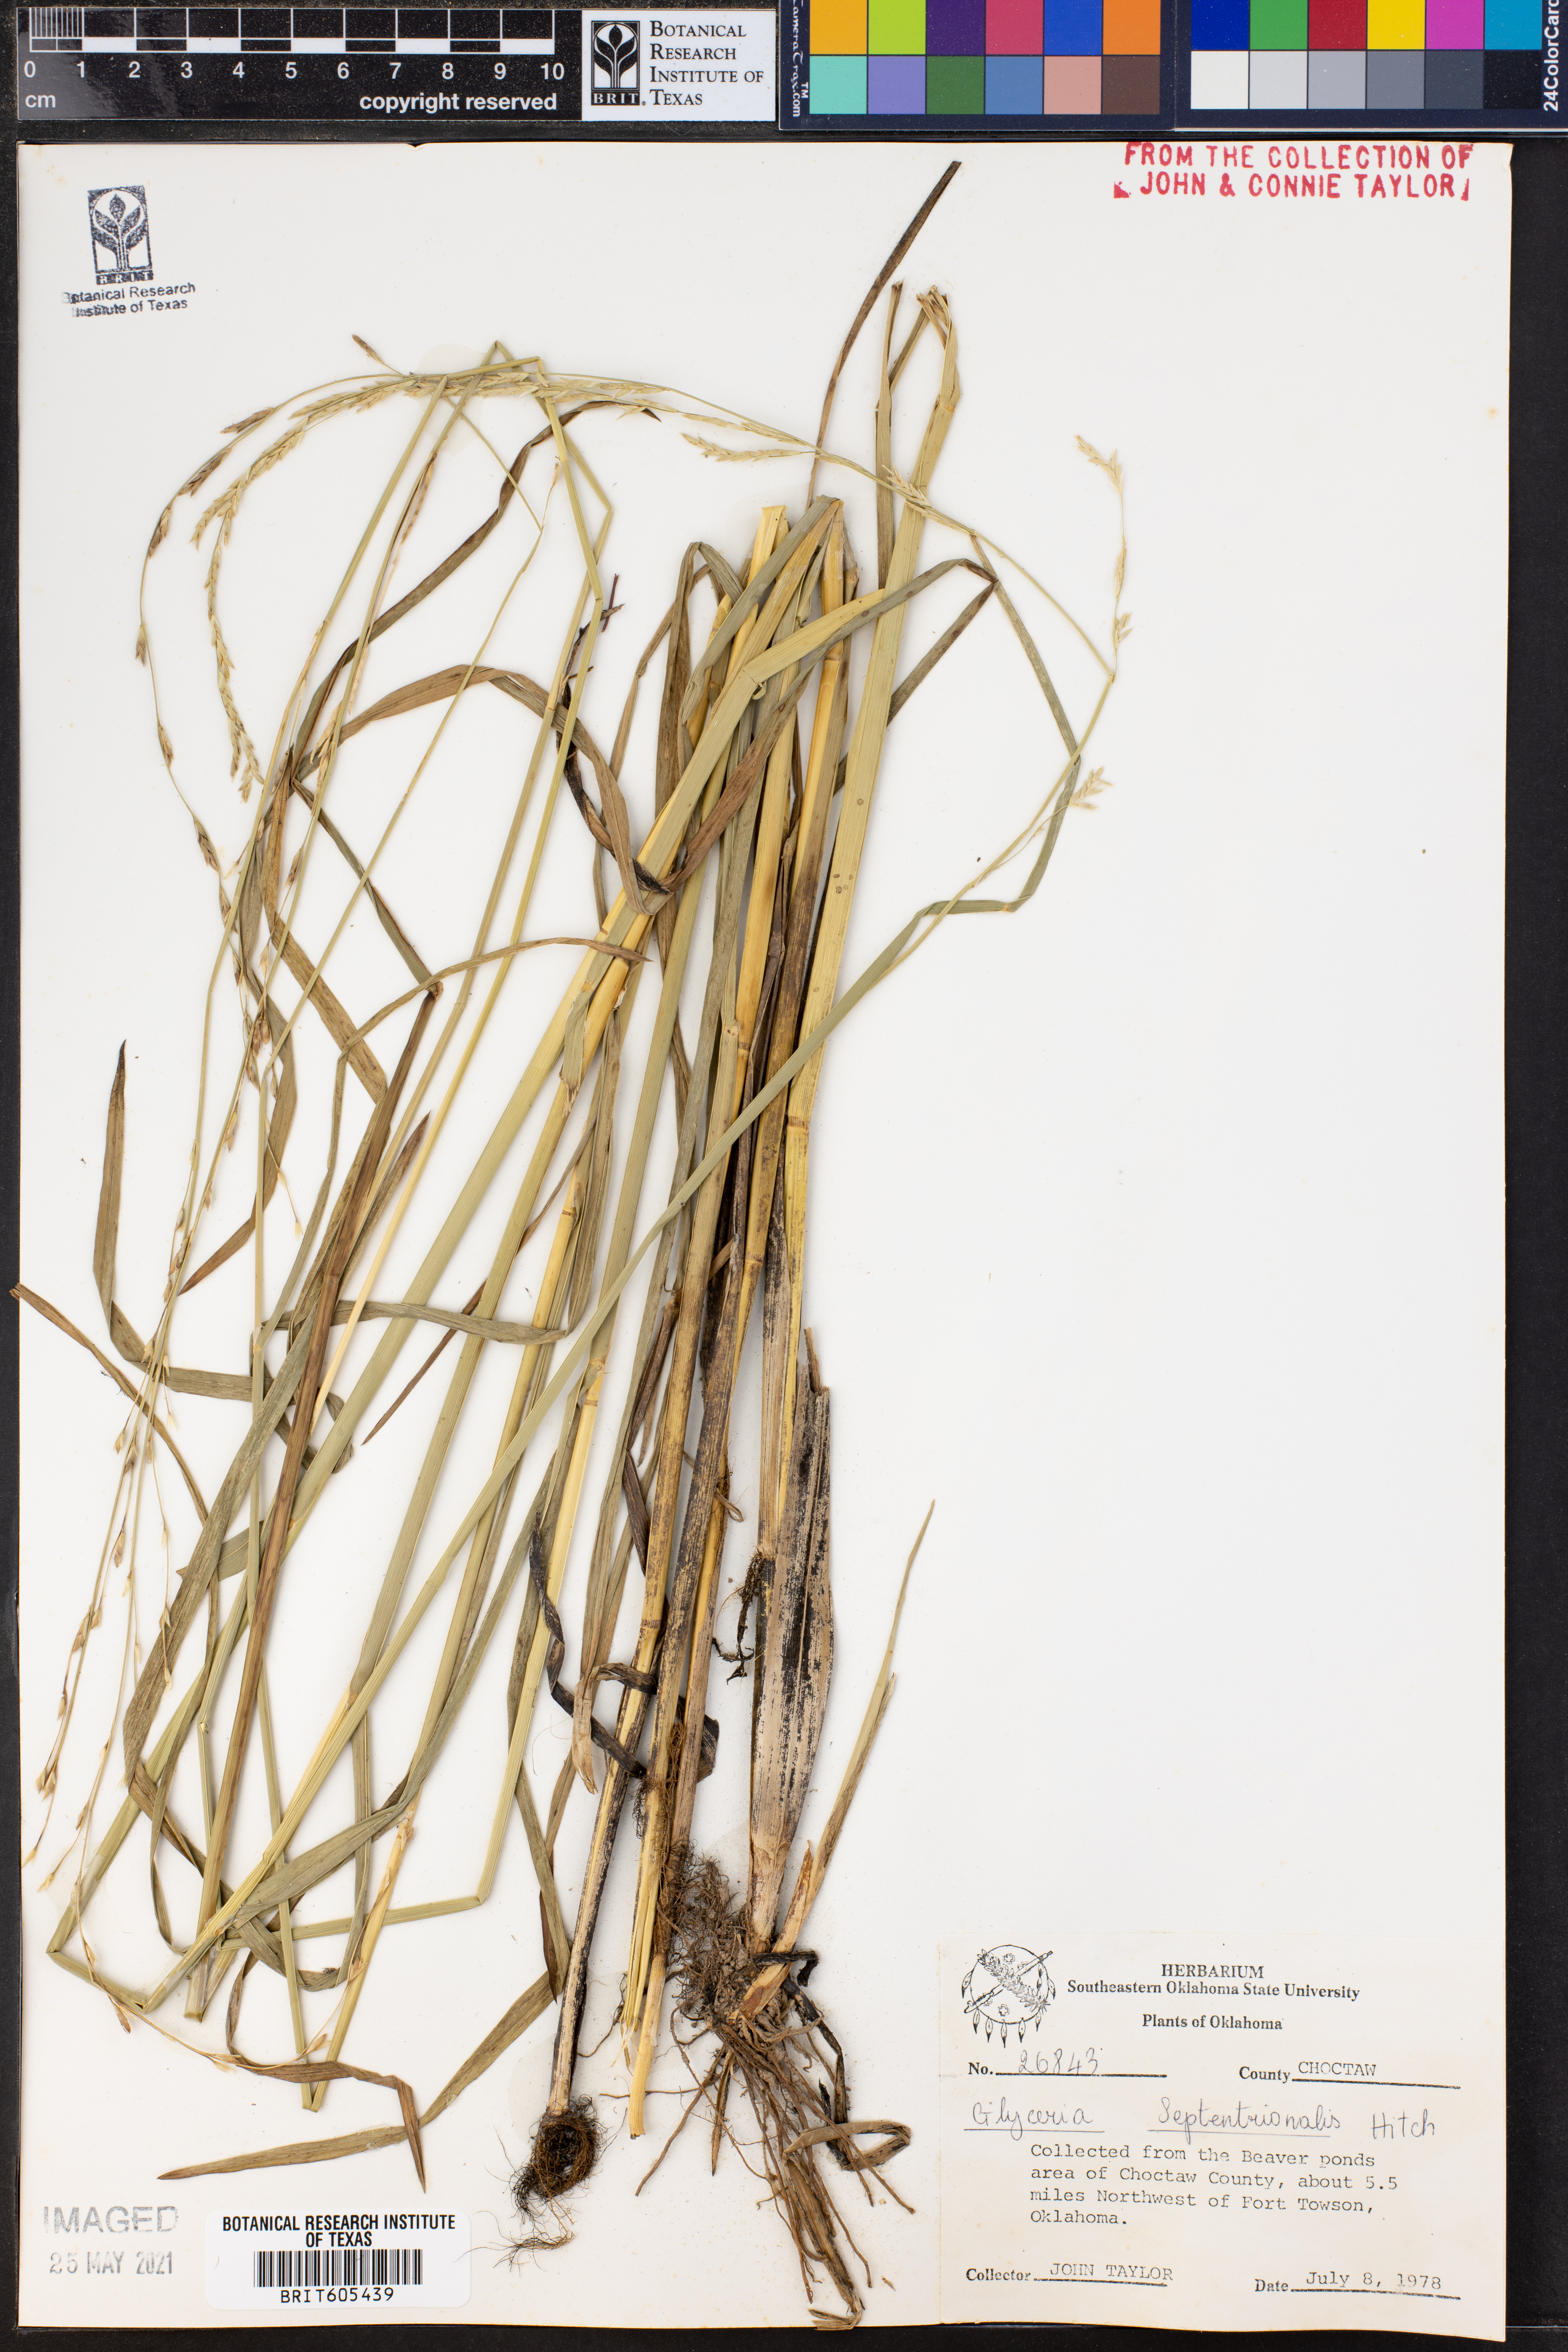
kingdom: Plantae
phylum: Tracheophyta
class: Liliopsida
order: Poales
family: Poaceae
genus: Glyceria
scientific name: Glyceria septentrionalis
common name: Eastern mannagrass
